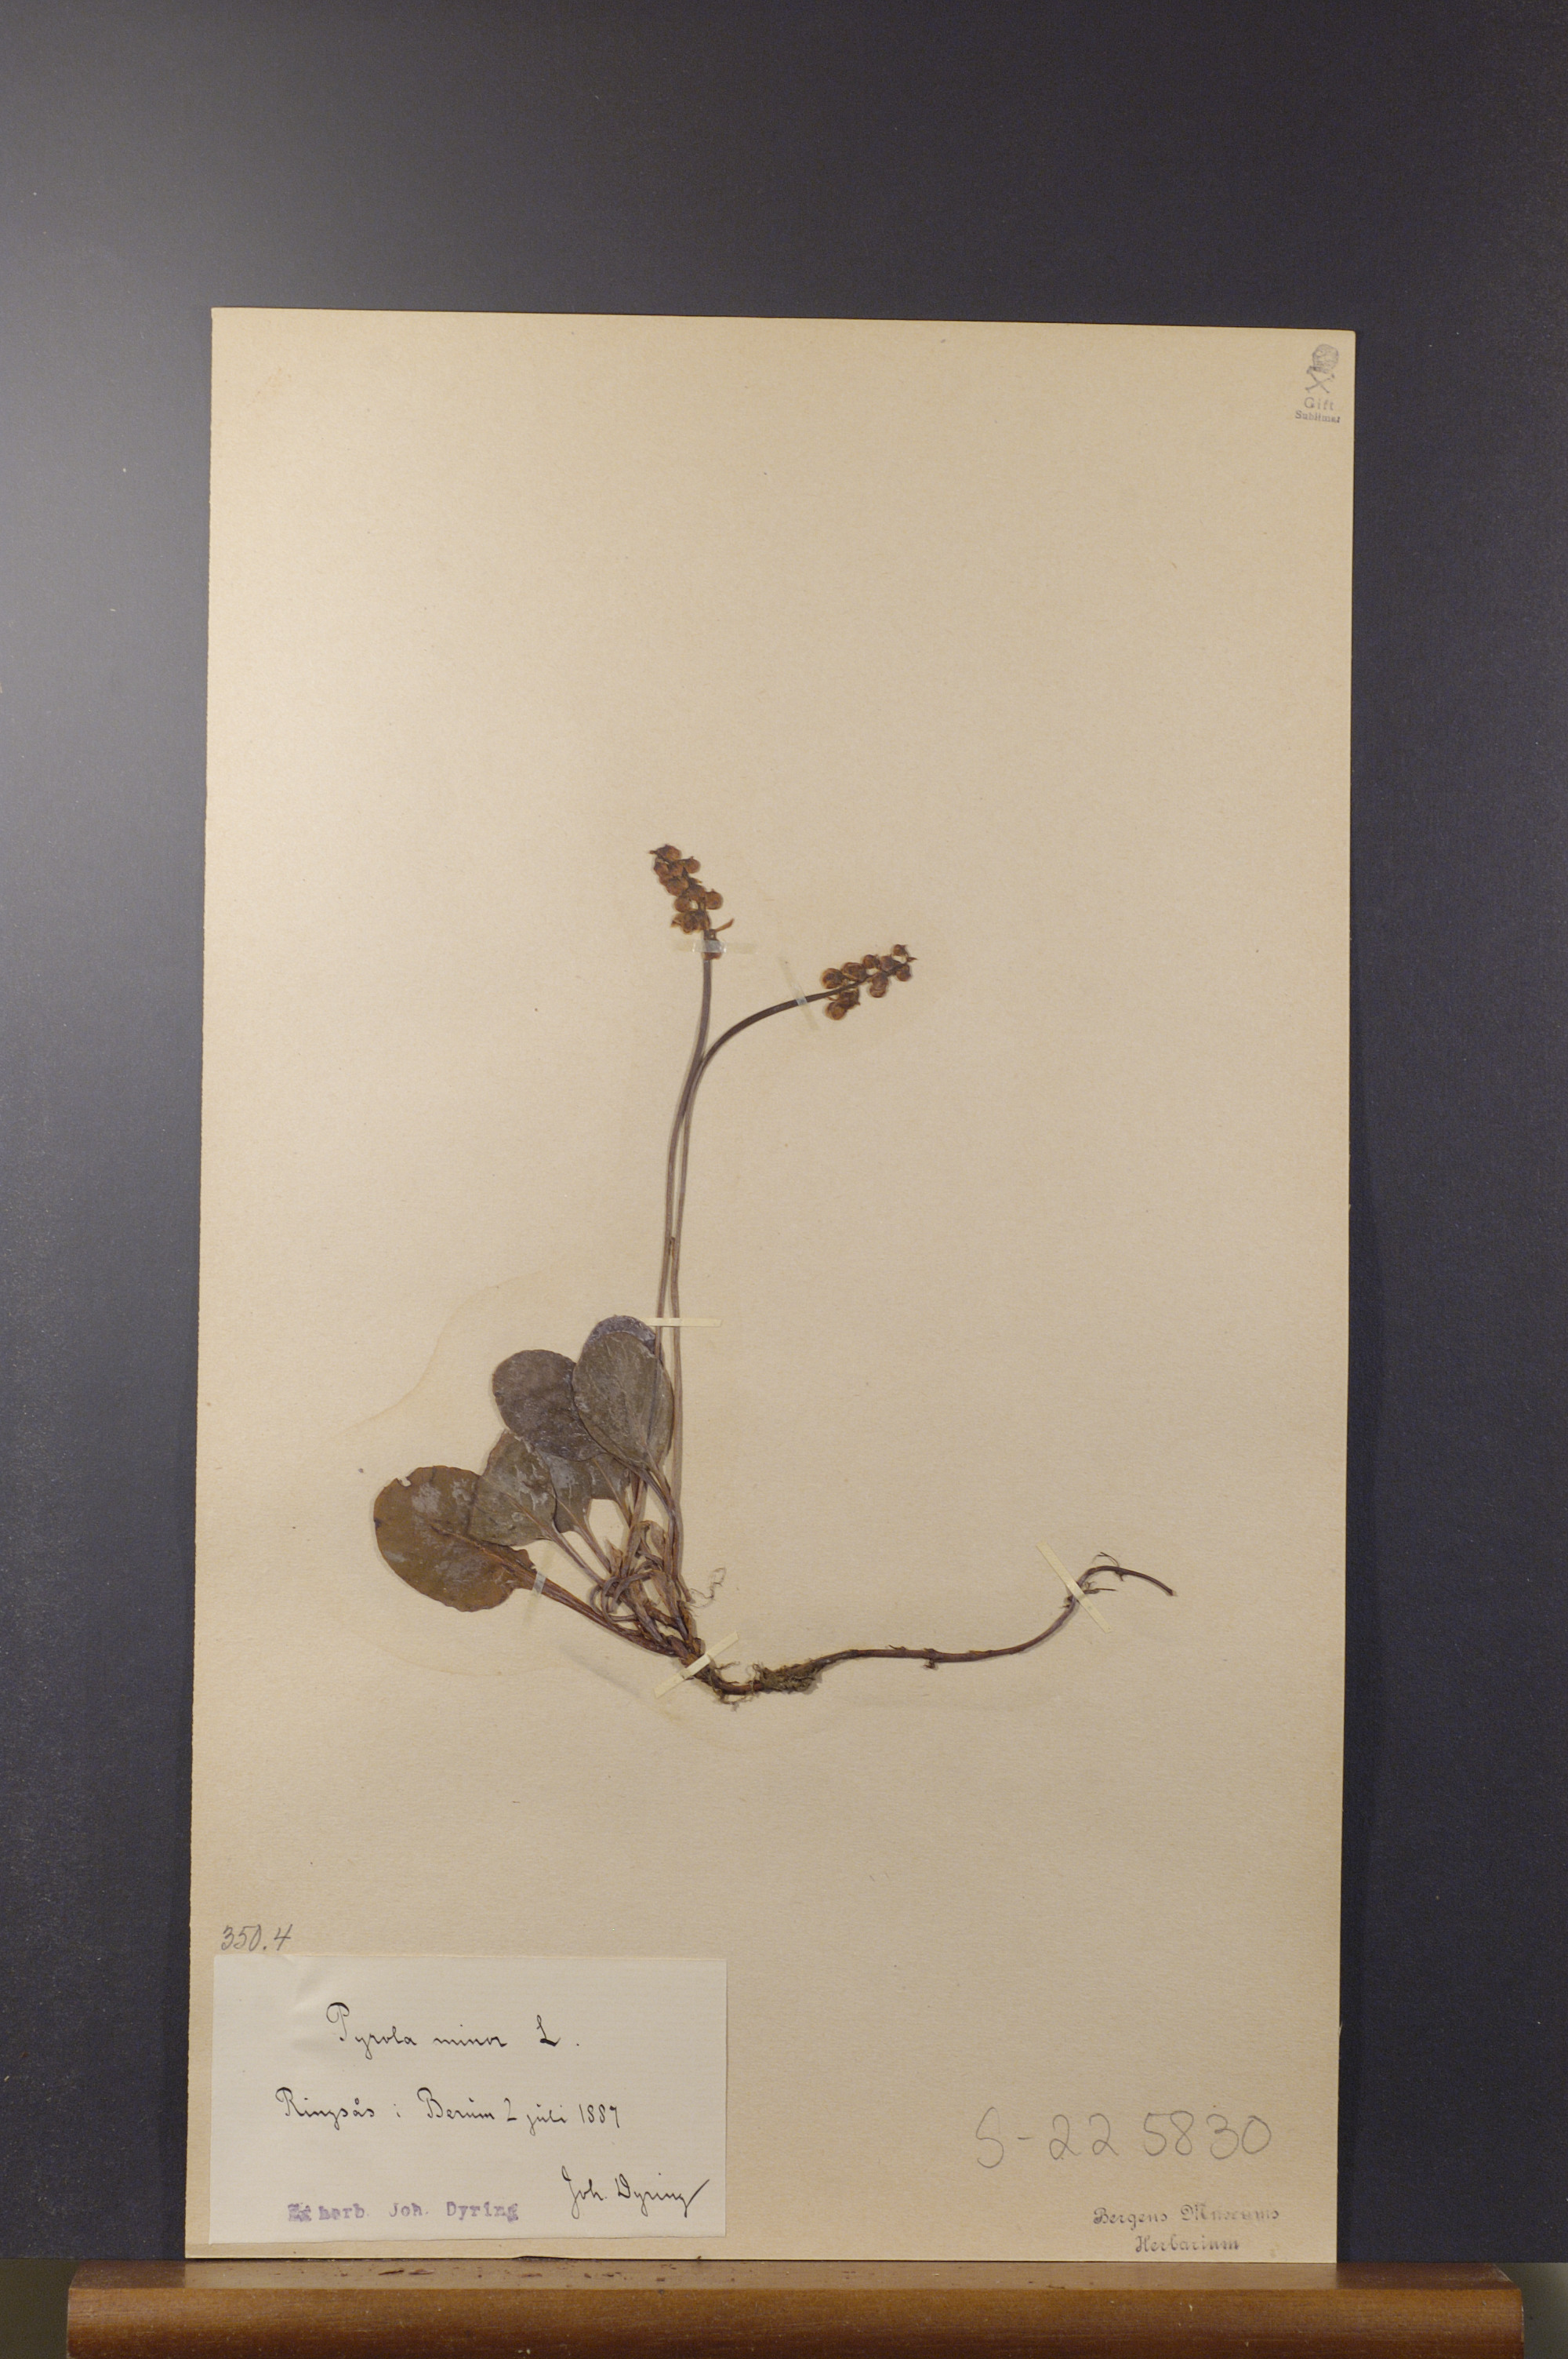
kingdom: Plantae
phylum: Tracheophyta
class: Magnoliopsida
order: Ericales
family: Ericaceae
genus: Pyrola
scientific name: Pyrola minor
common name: Common wintergreen
